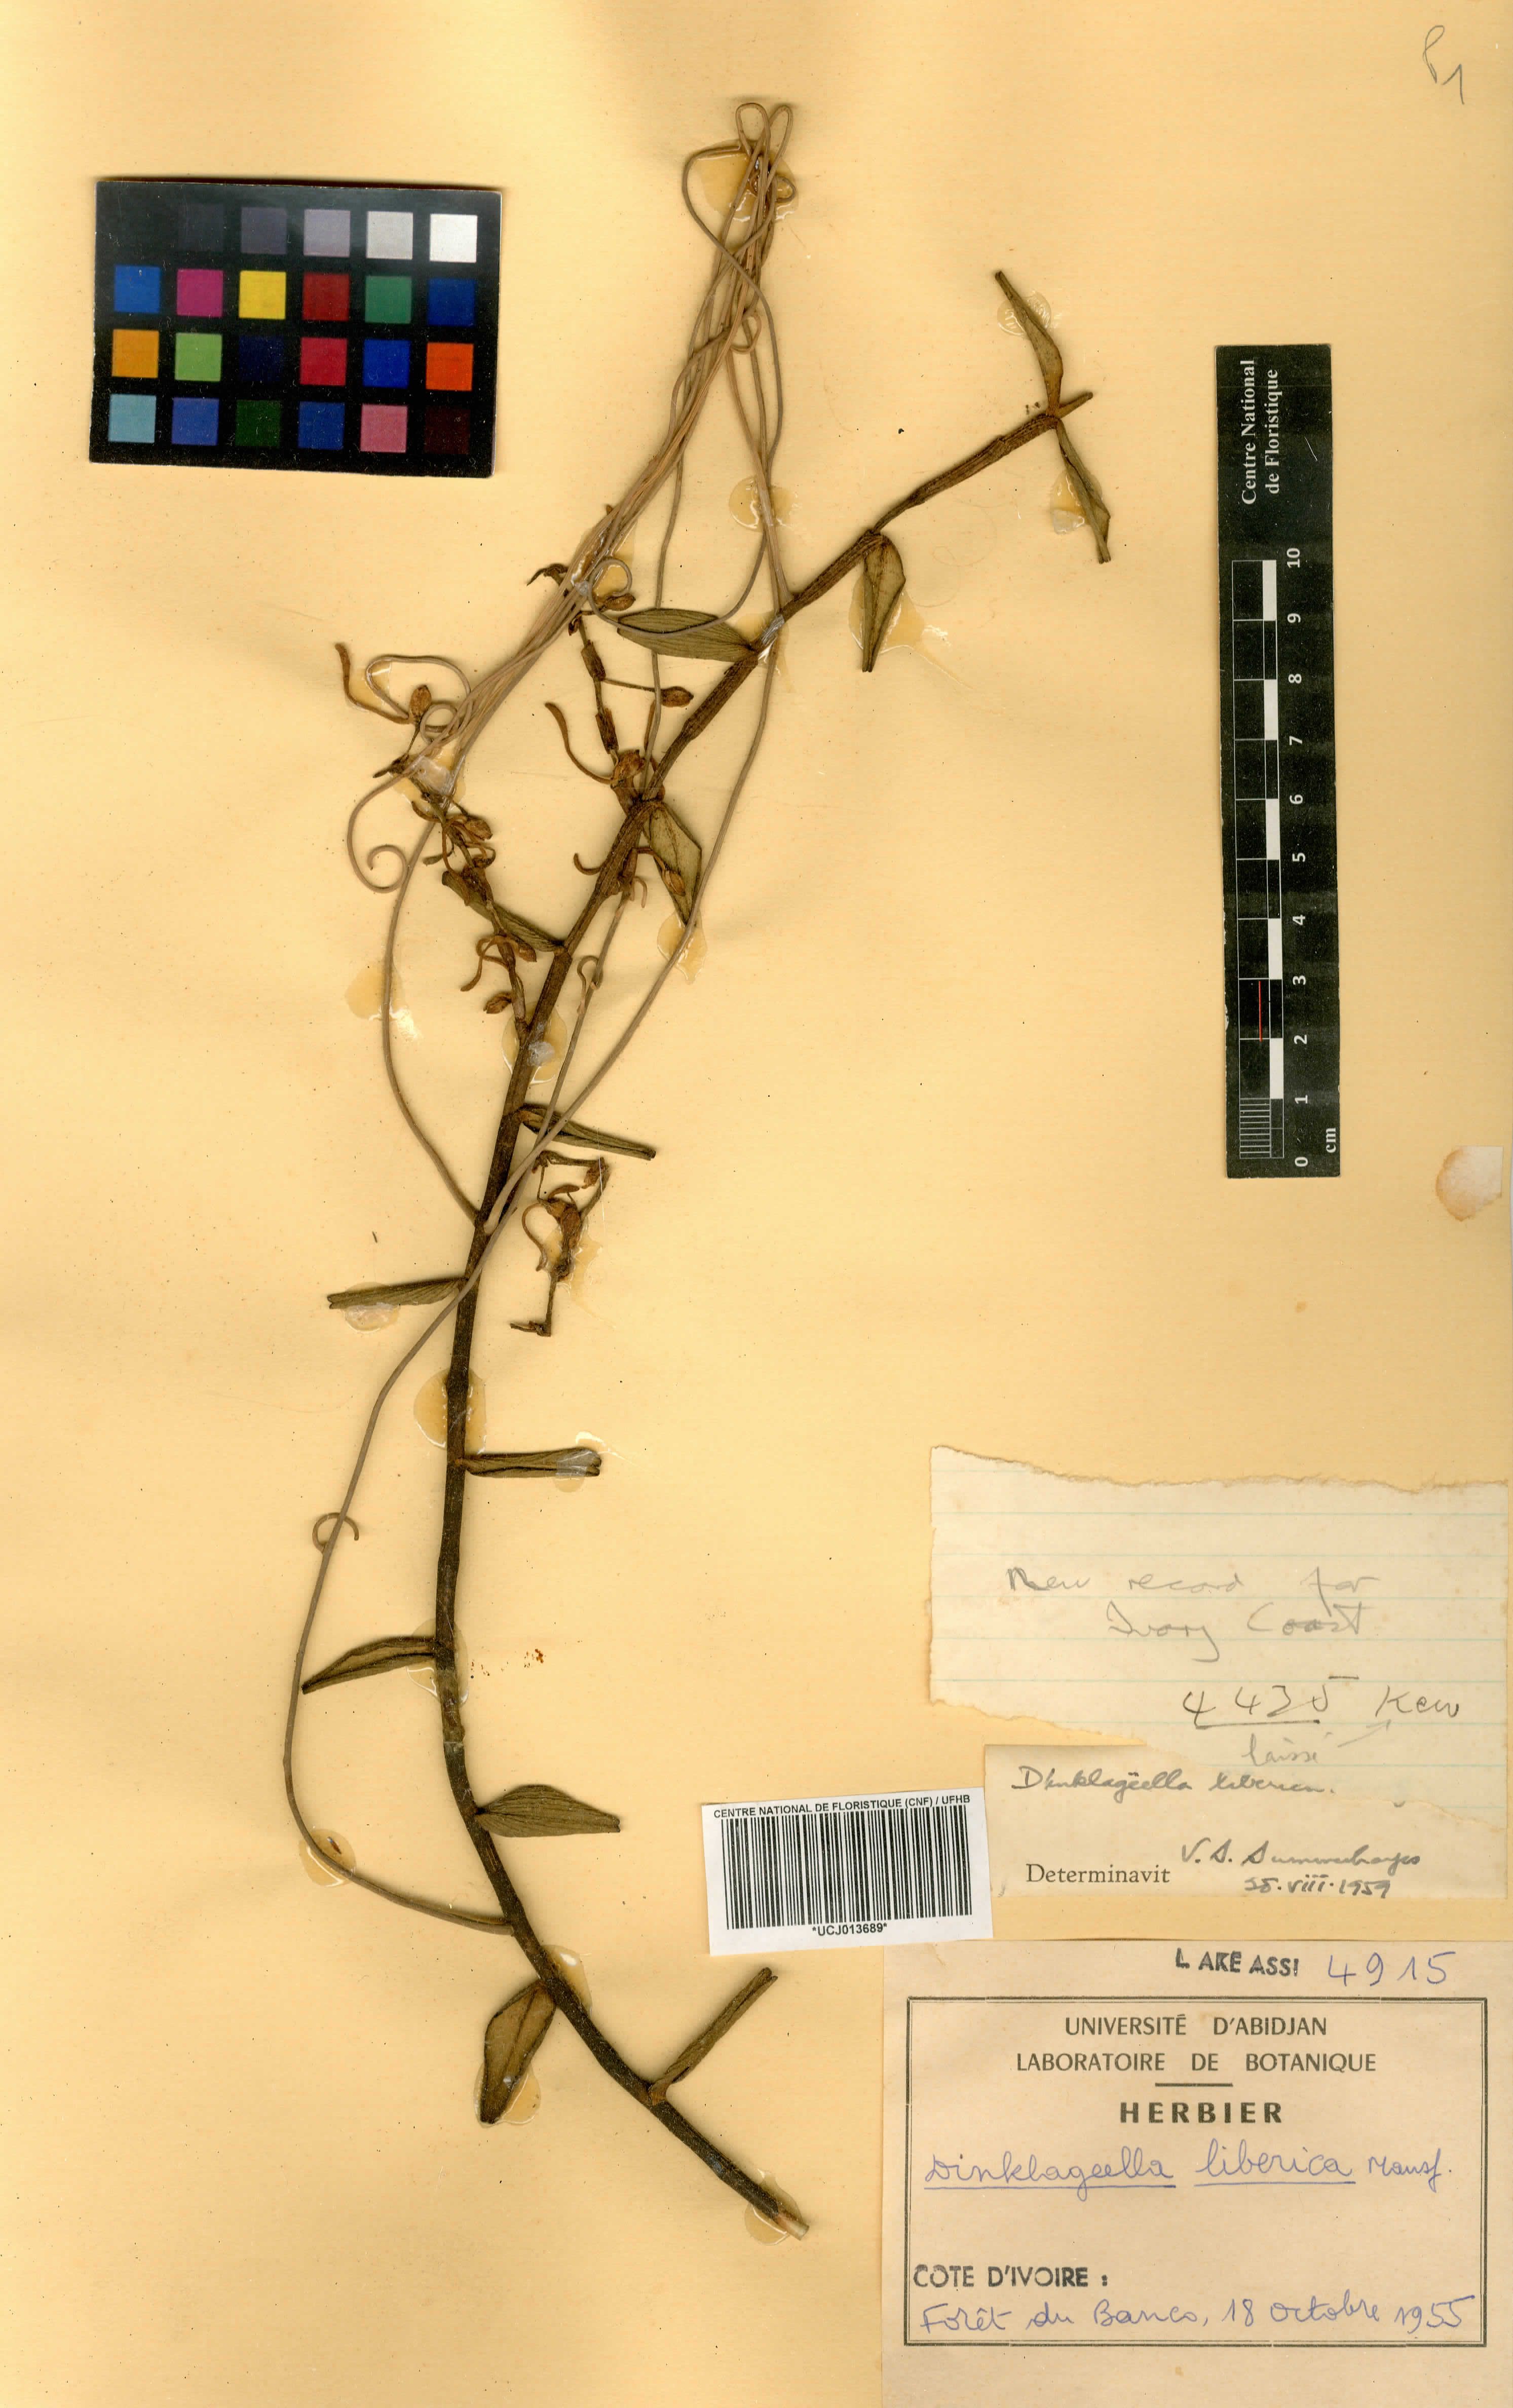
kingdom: Plantae
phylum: Tracheophyta
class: Liliopsida
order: Asparagales
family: Orchidaceae
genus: Dinklageella
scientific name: Dinklageella liberica
